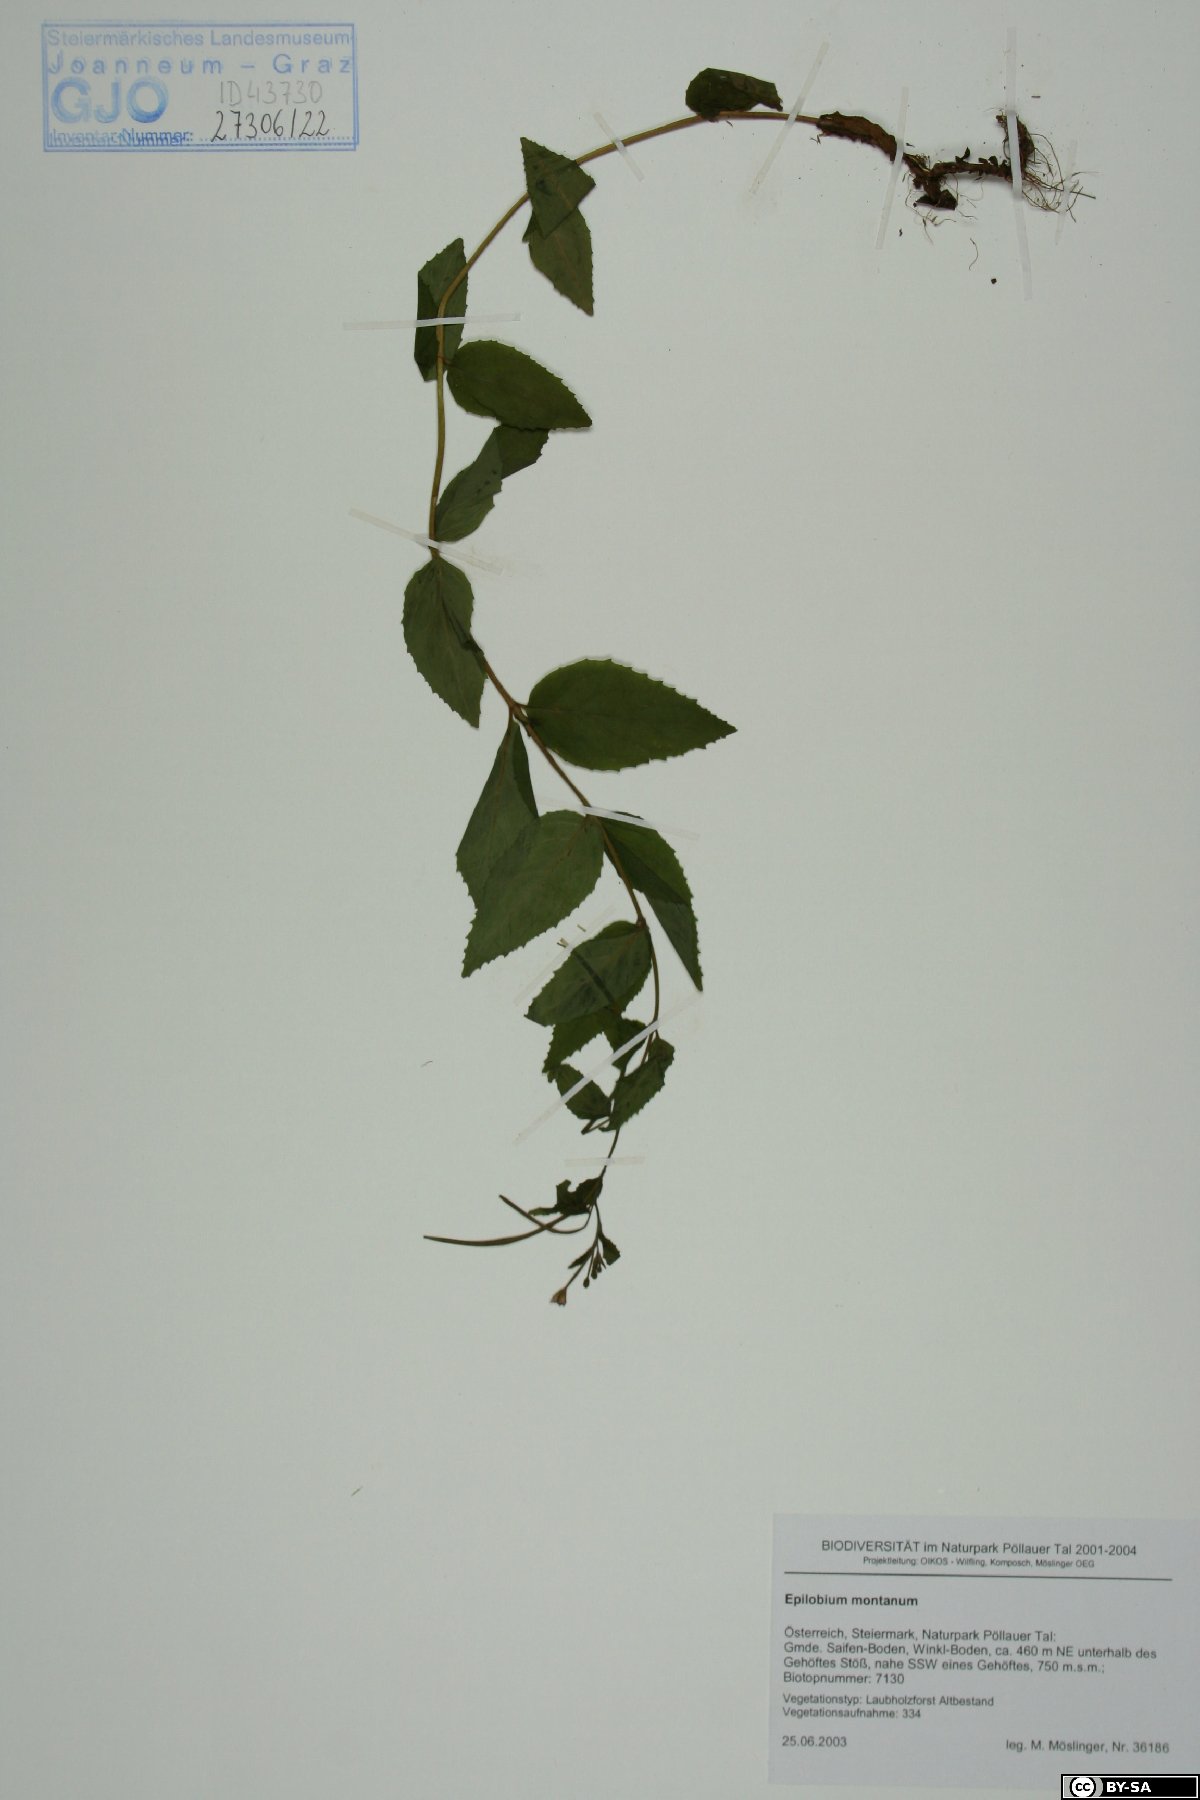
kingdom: Plantae
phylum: Tracheophyta
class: Magnoliopsida
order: Myrtales
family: Onagraceae
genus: Epilobium
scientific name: Epilobium montanum
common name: Broad-leaved willowherb
